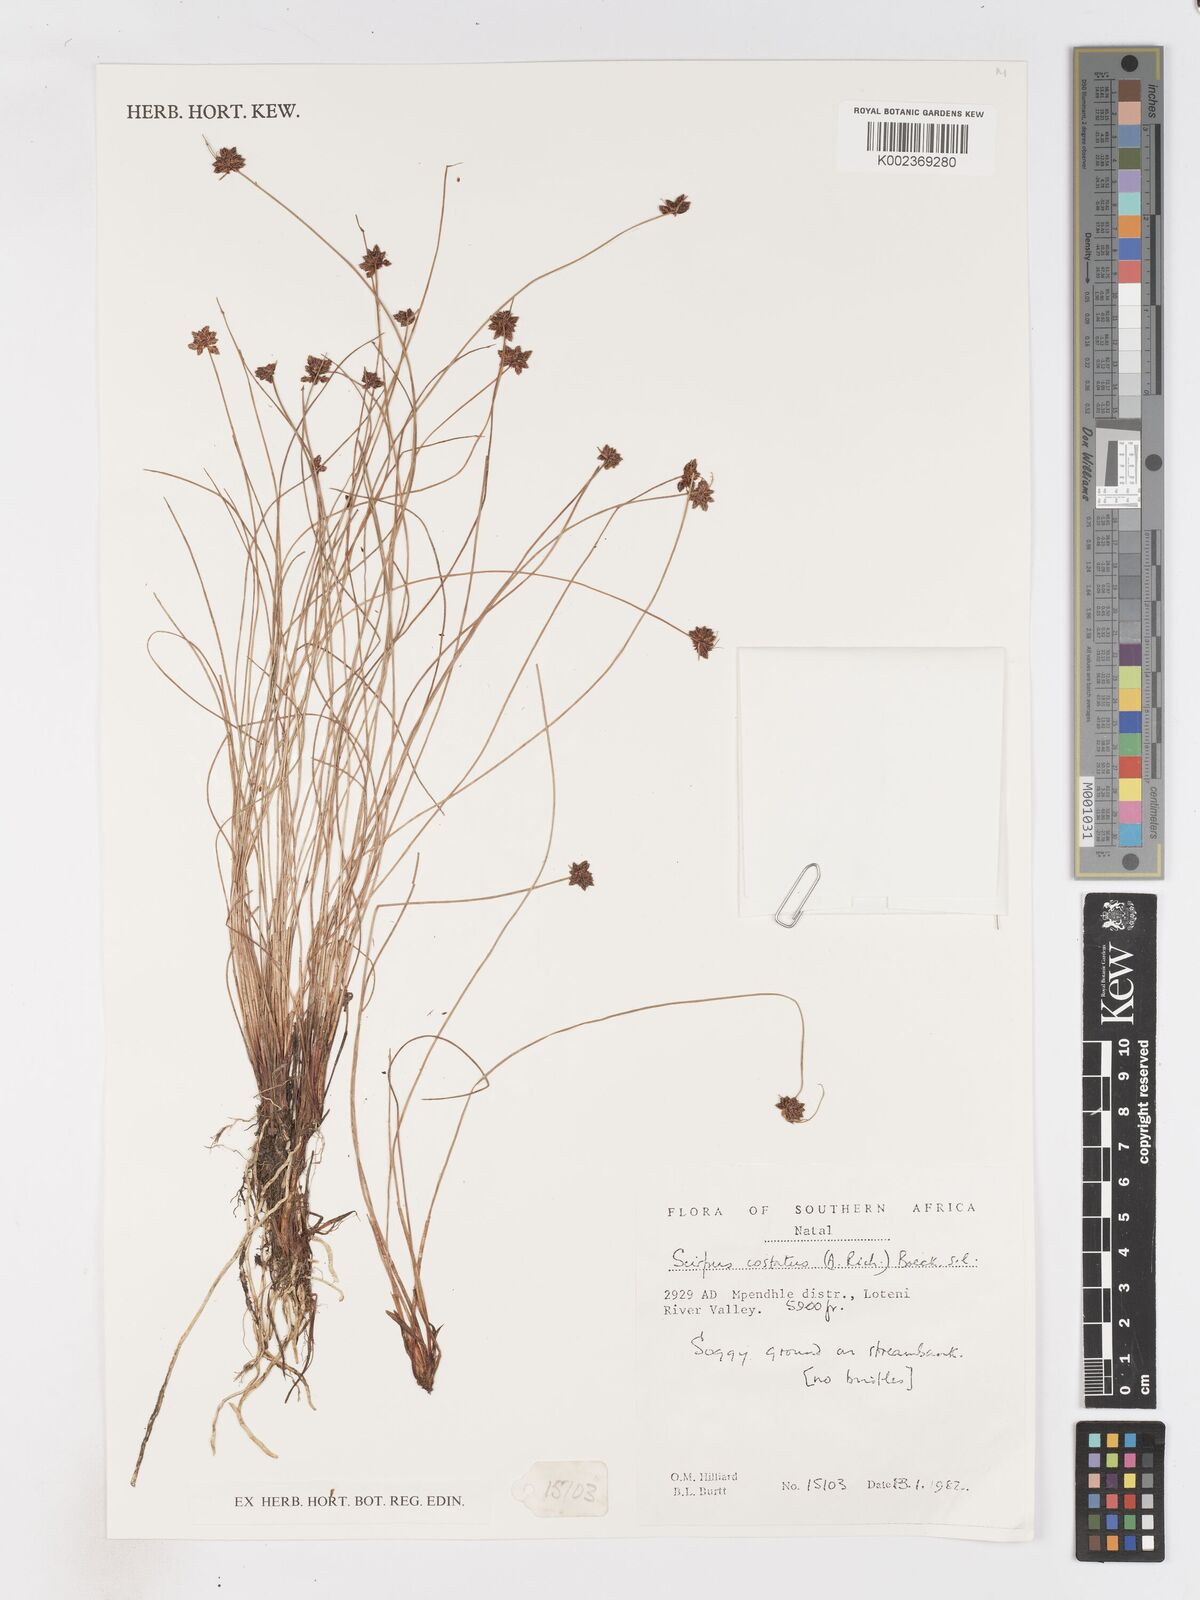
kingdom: Plantae
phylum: Tracheophyta
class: Liliopsida
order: Poales
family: Cyperaceae
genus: Isolepis
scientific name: Isolepis costata
